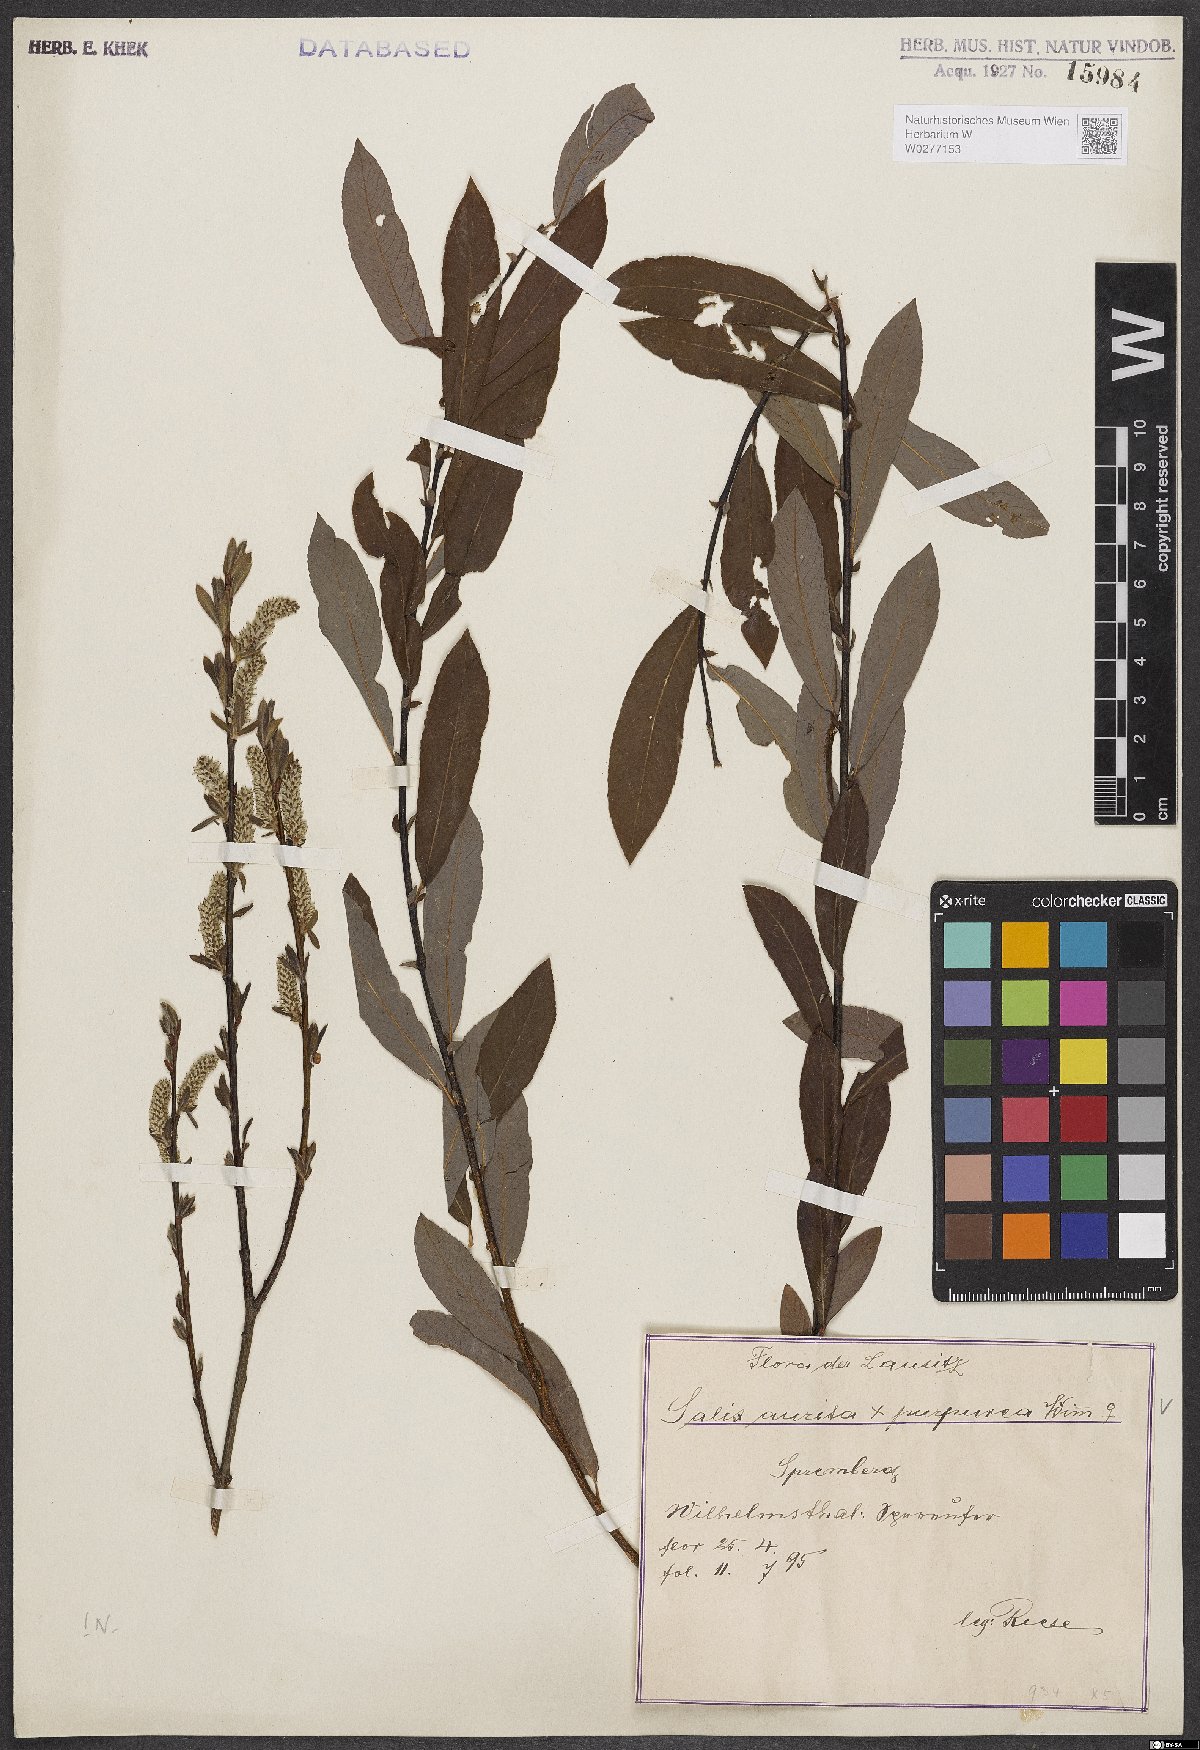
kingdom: Plantae
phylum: Tracheophyta
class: Magnoliopsida
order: Malpighiales
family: Salicaceae
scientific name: Salicaceae
